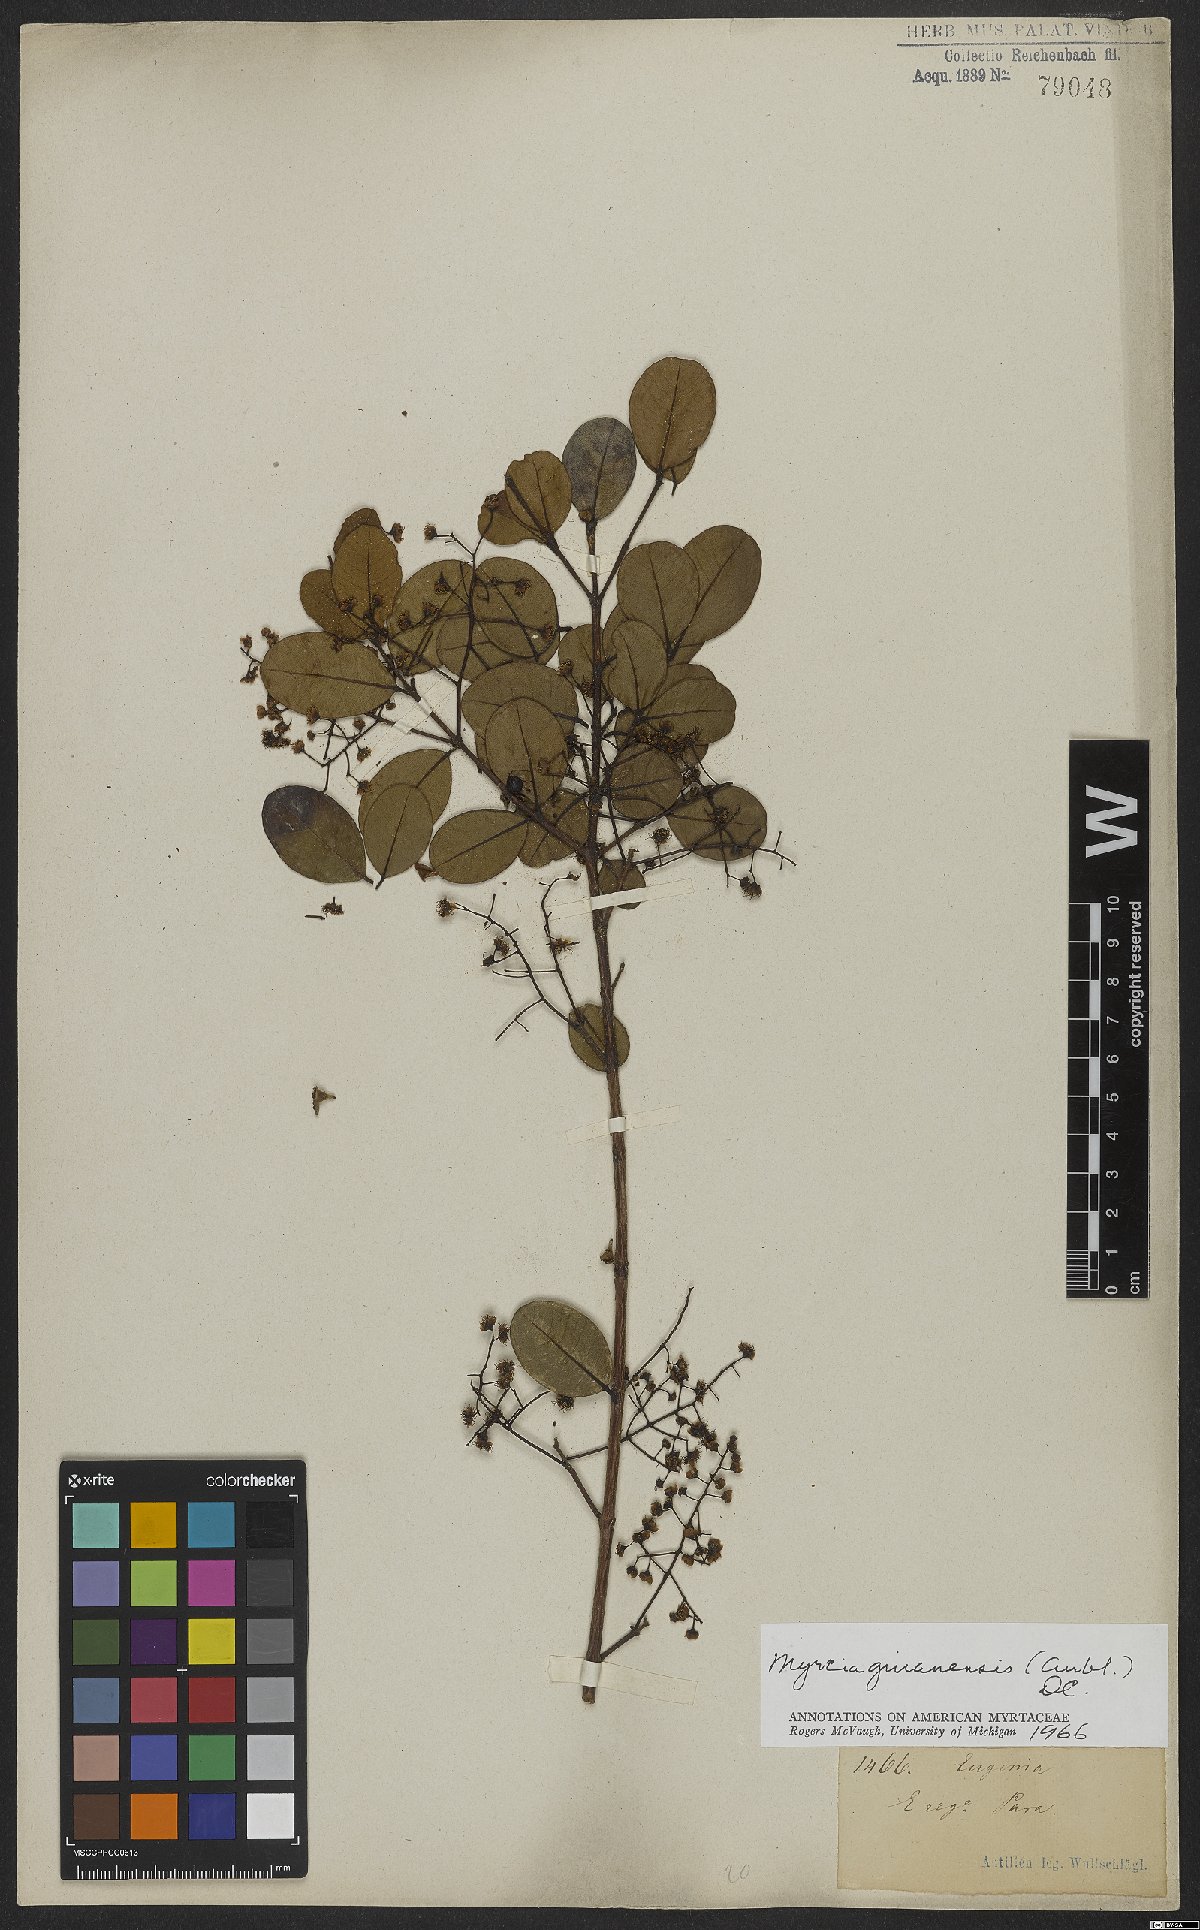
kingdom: Plantae
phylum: Tracheophyta
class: Magnoliopsida
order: Myrtales
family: Myrtaceae
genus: Myrcia
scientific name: Myrcia guianensis
